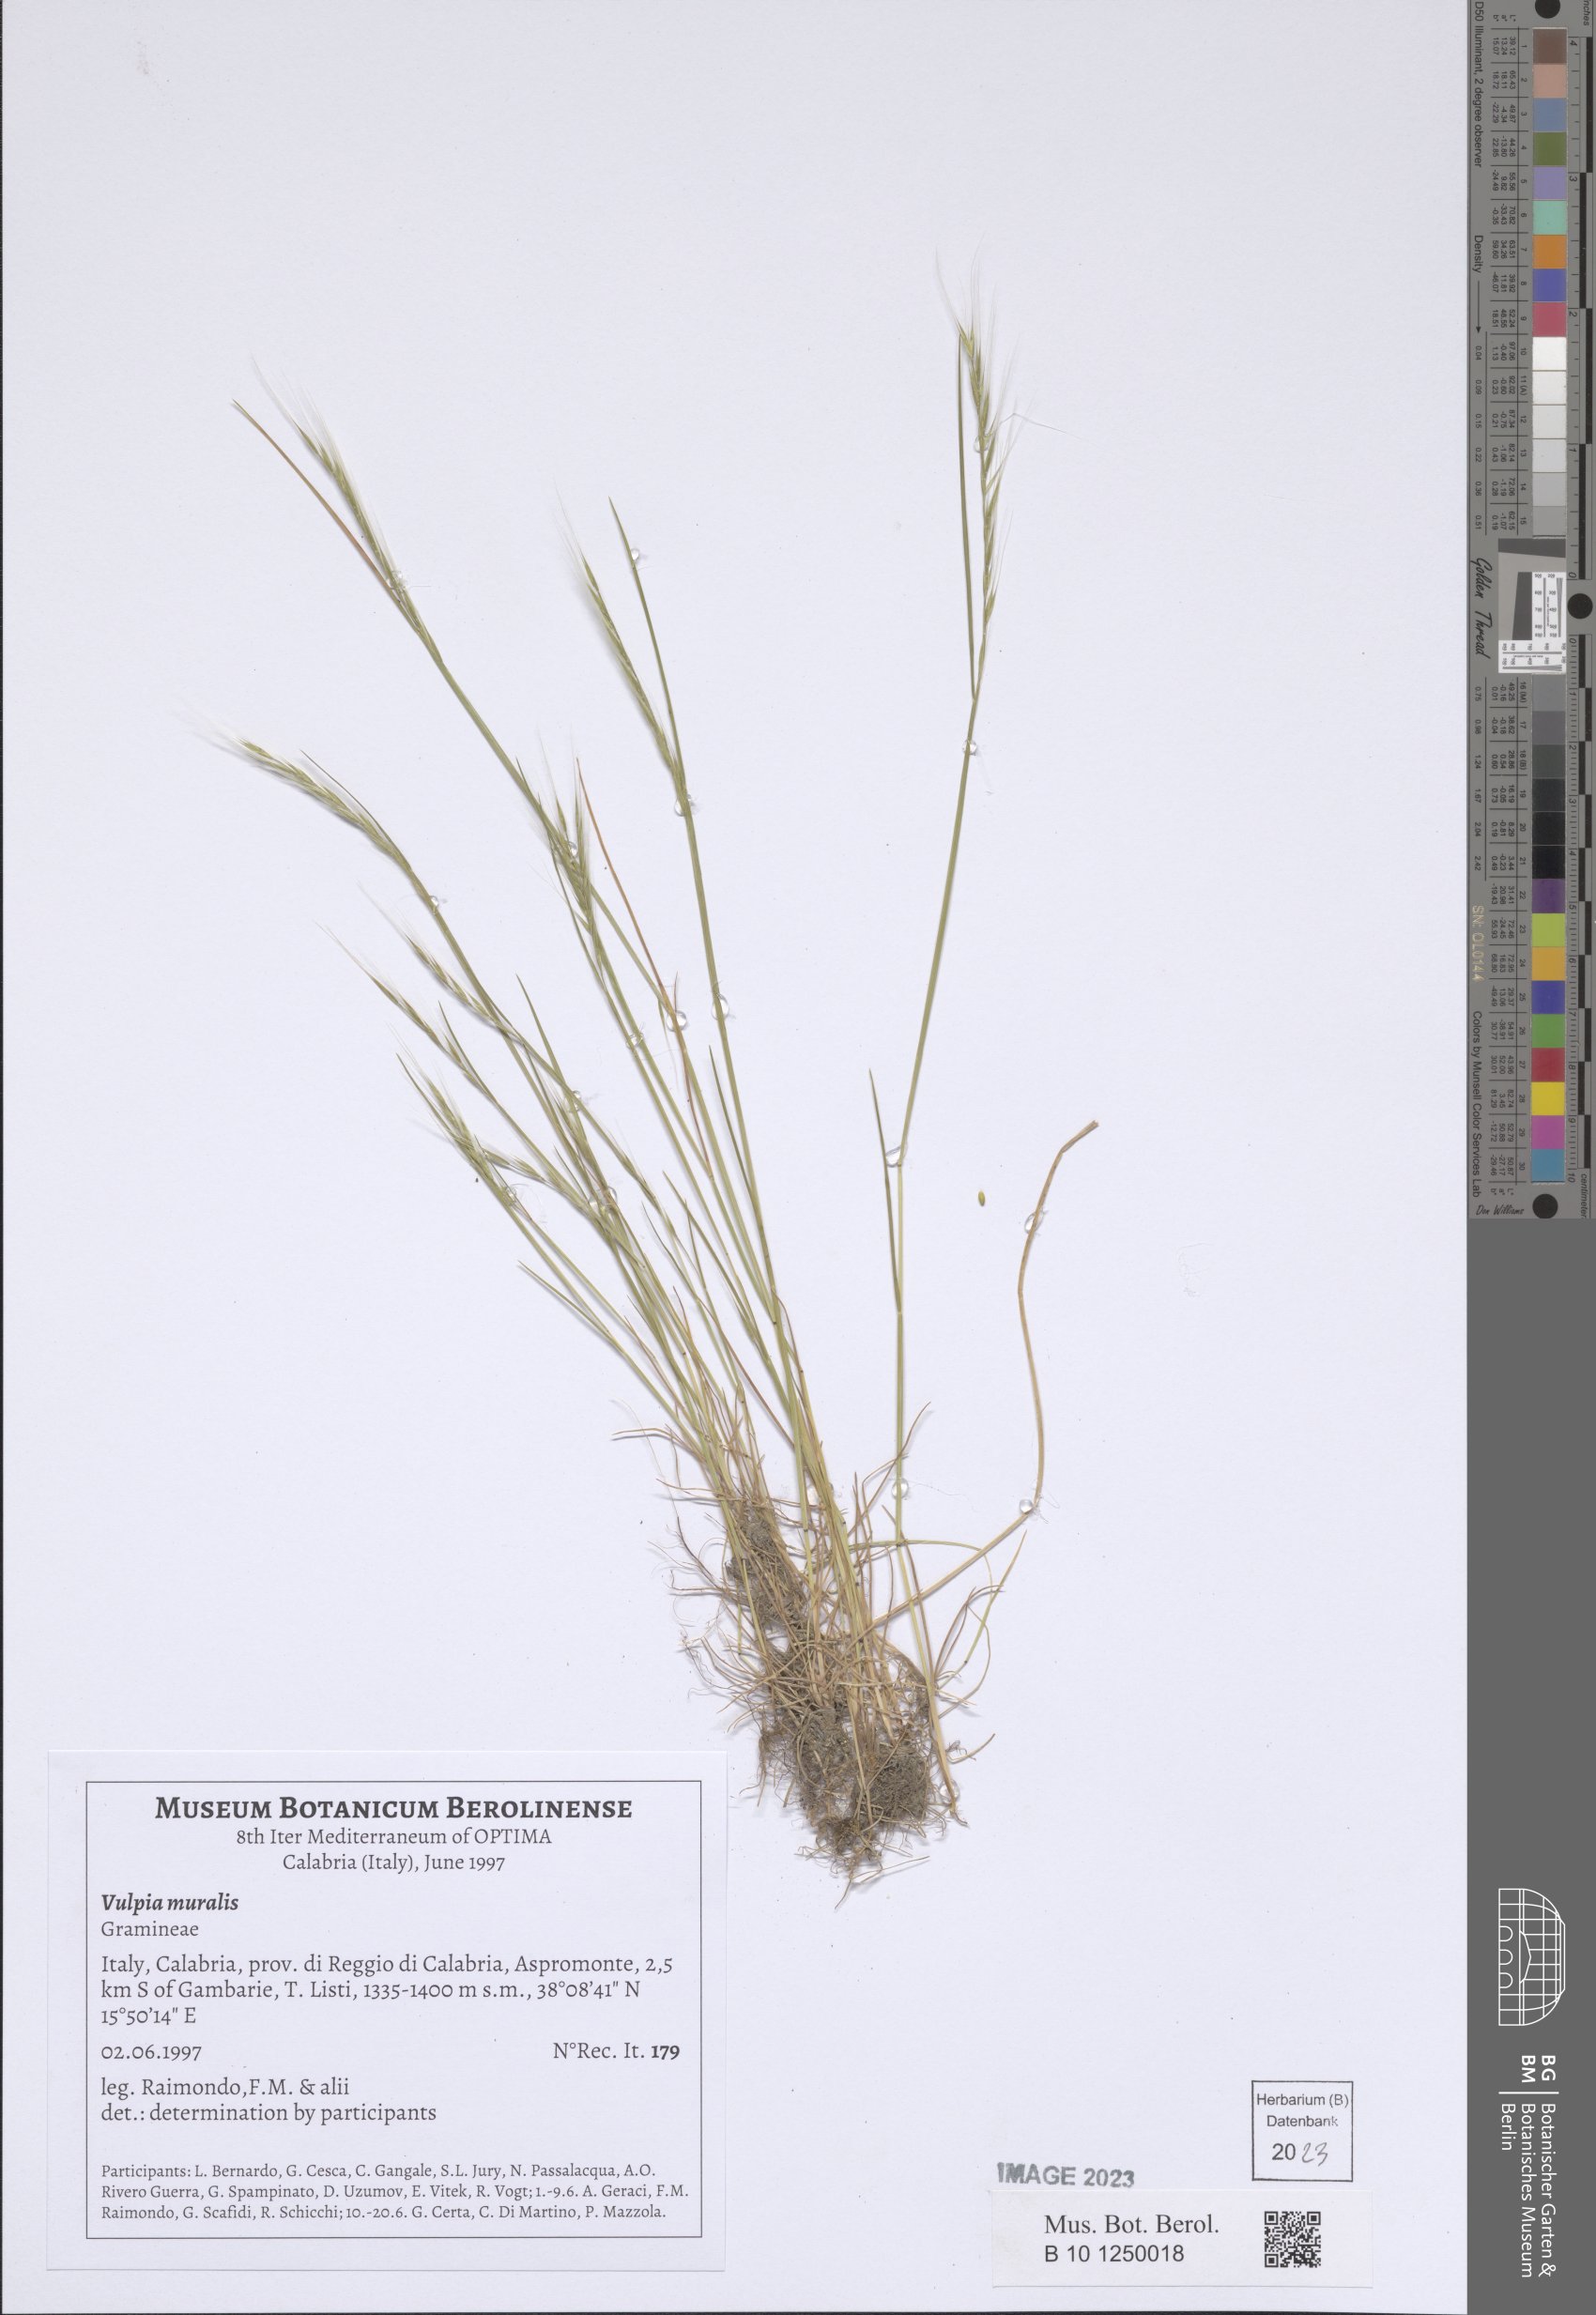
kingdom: Plantae
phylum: Tracheophyta
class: Liliopsida
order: Poales
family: Poaceae
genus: Festuca
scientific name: Festuca muralis
